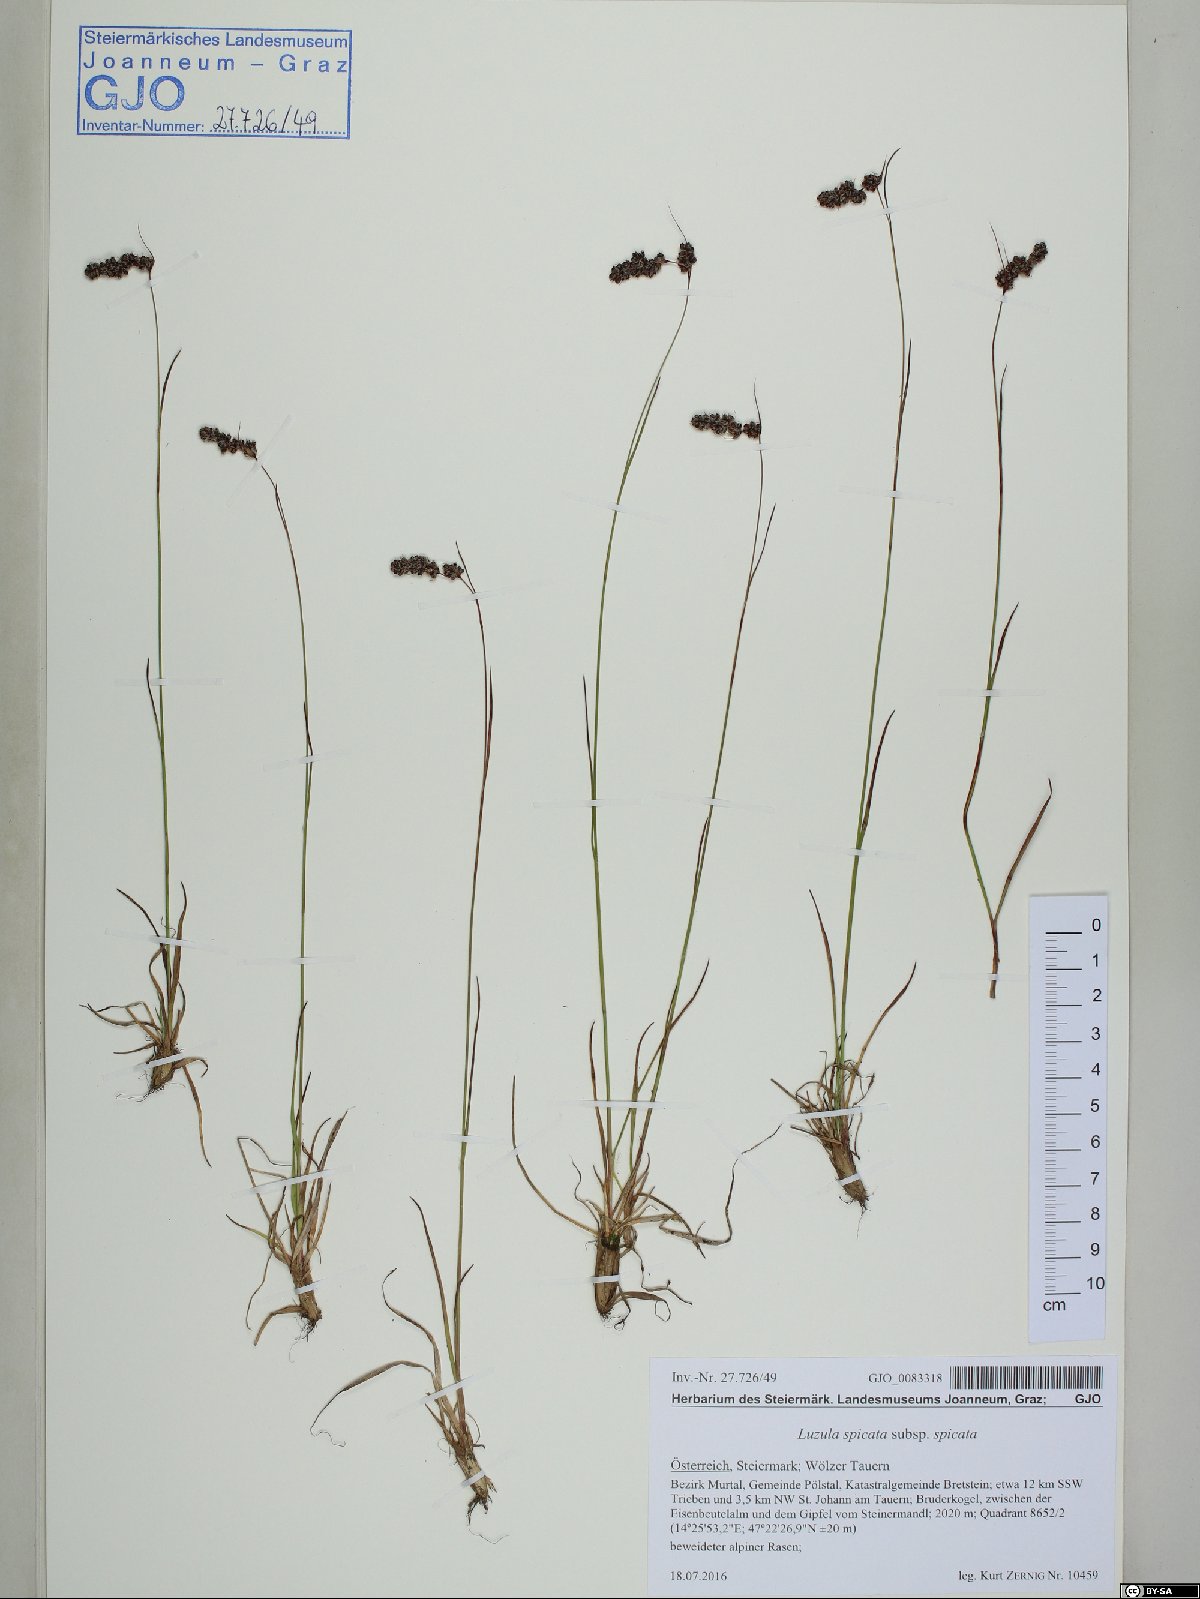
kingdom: Plantae
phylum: Tracheophyta
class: Liliopsida
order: Poales
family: Juncaceae
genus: Luzula
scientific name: Luzula spicata
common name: Spiked wood-rush
